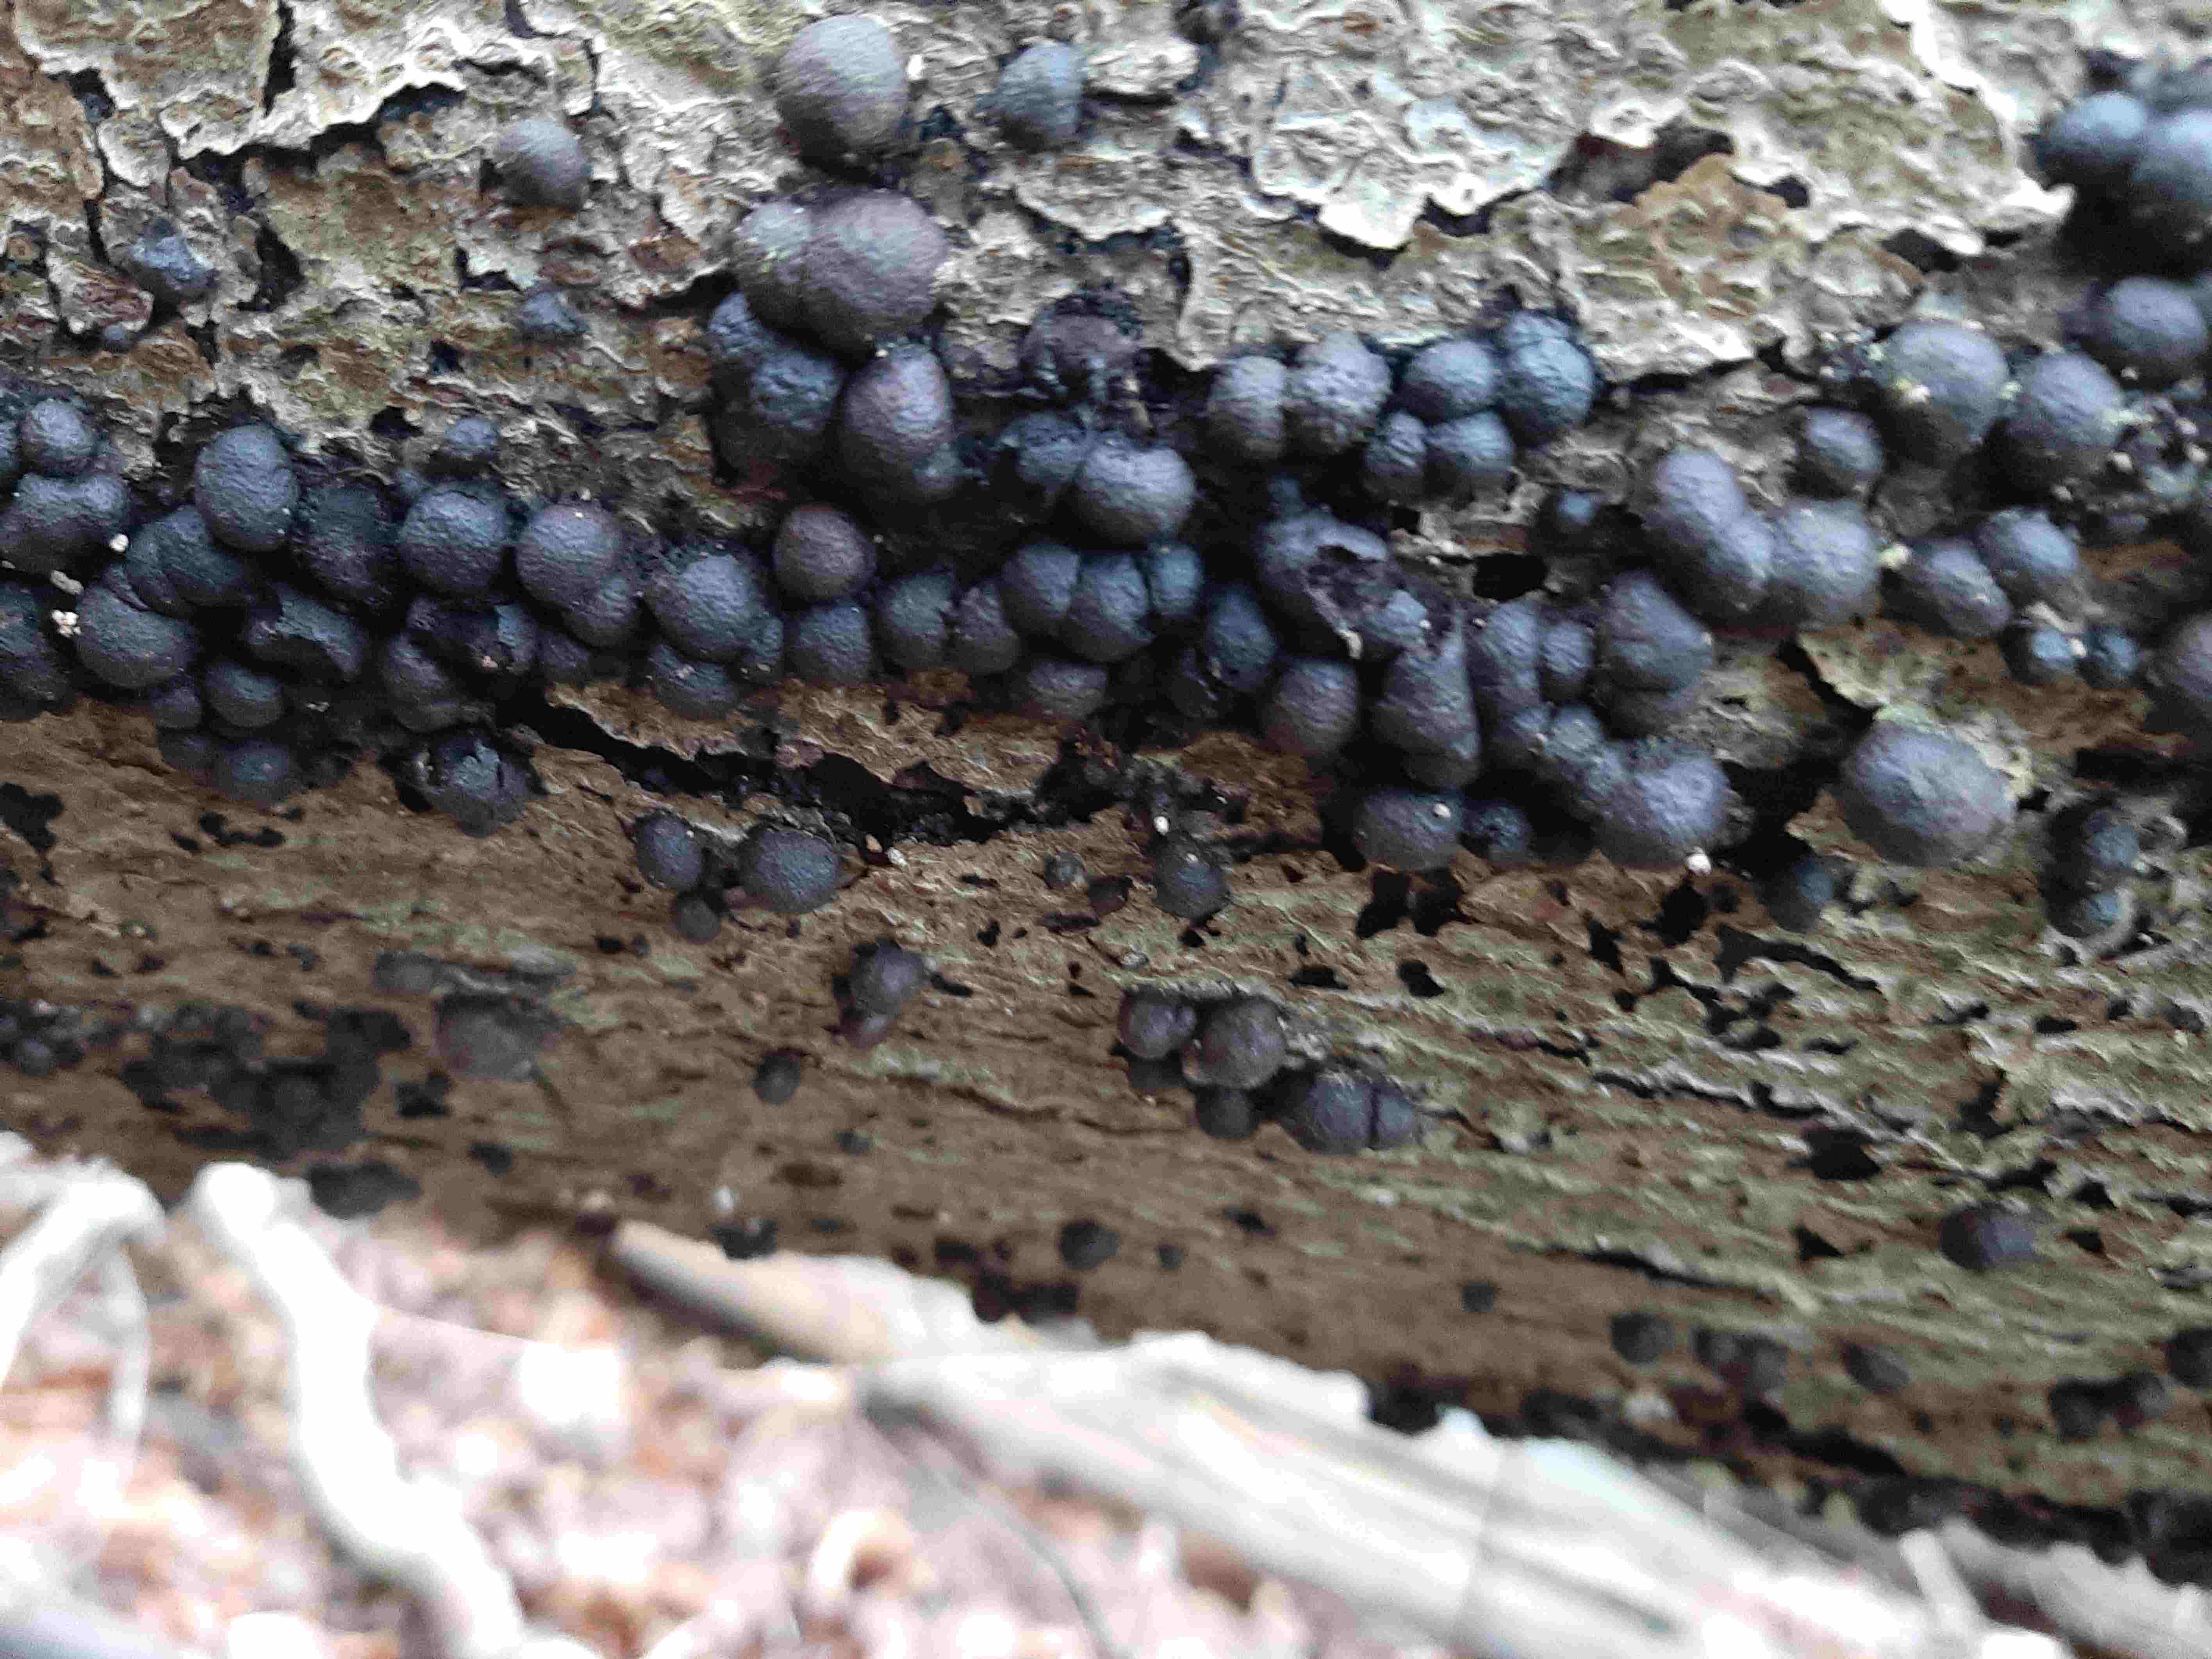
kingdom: Fungi
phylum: Ascomycota
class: Sordariomycetes
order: Xylariales
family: Hypoxylaceae
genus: Hypoxylon
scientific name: Hypoxylon fragiforme
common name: kuljordbær
